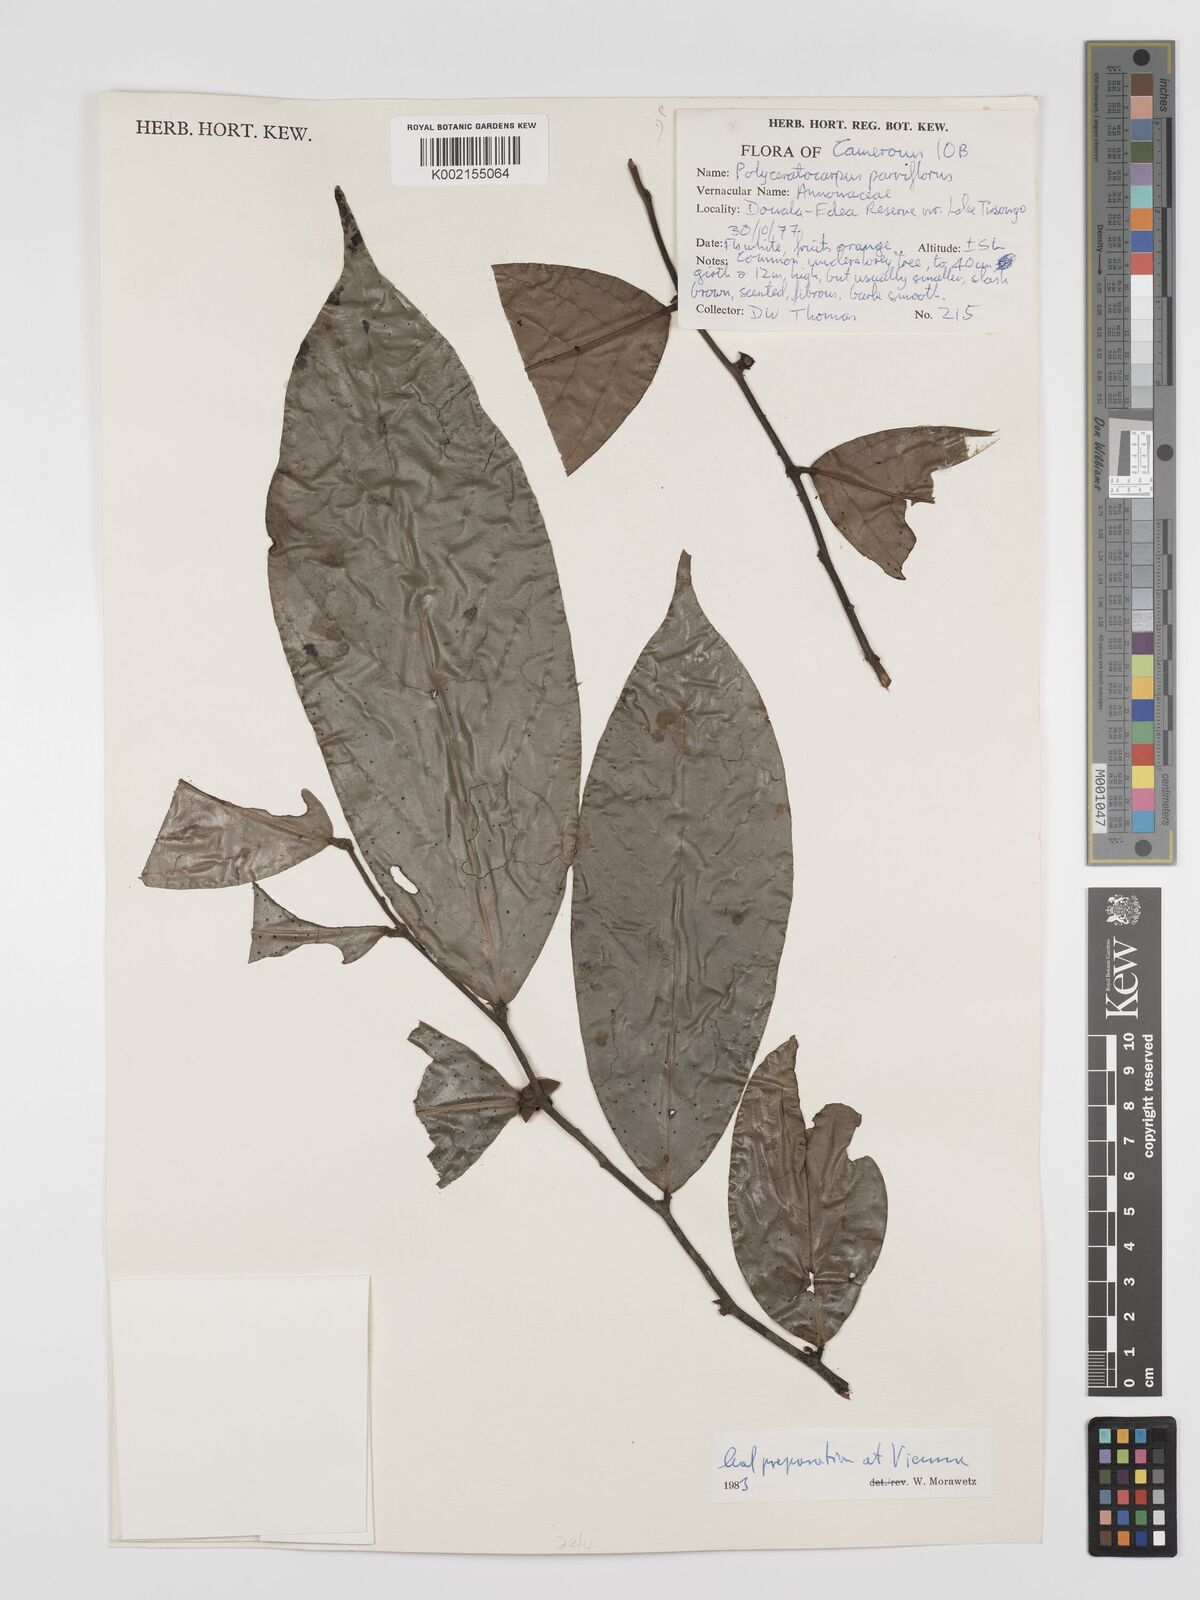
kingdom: Plantae
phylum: Tracheophyta
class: Magnoliopsida
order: Magnoliales
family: Annonaceae
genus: Polyceratocarpus
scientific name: Polyceratocarpus parviflorus
